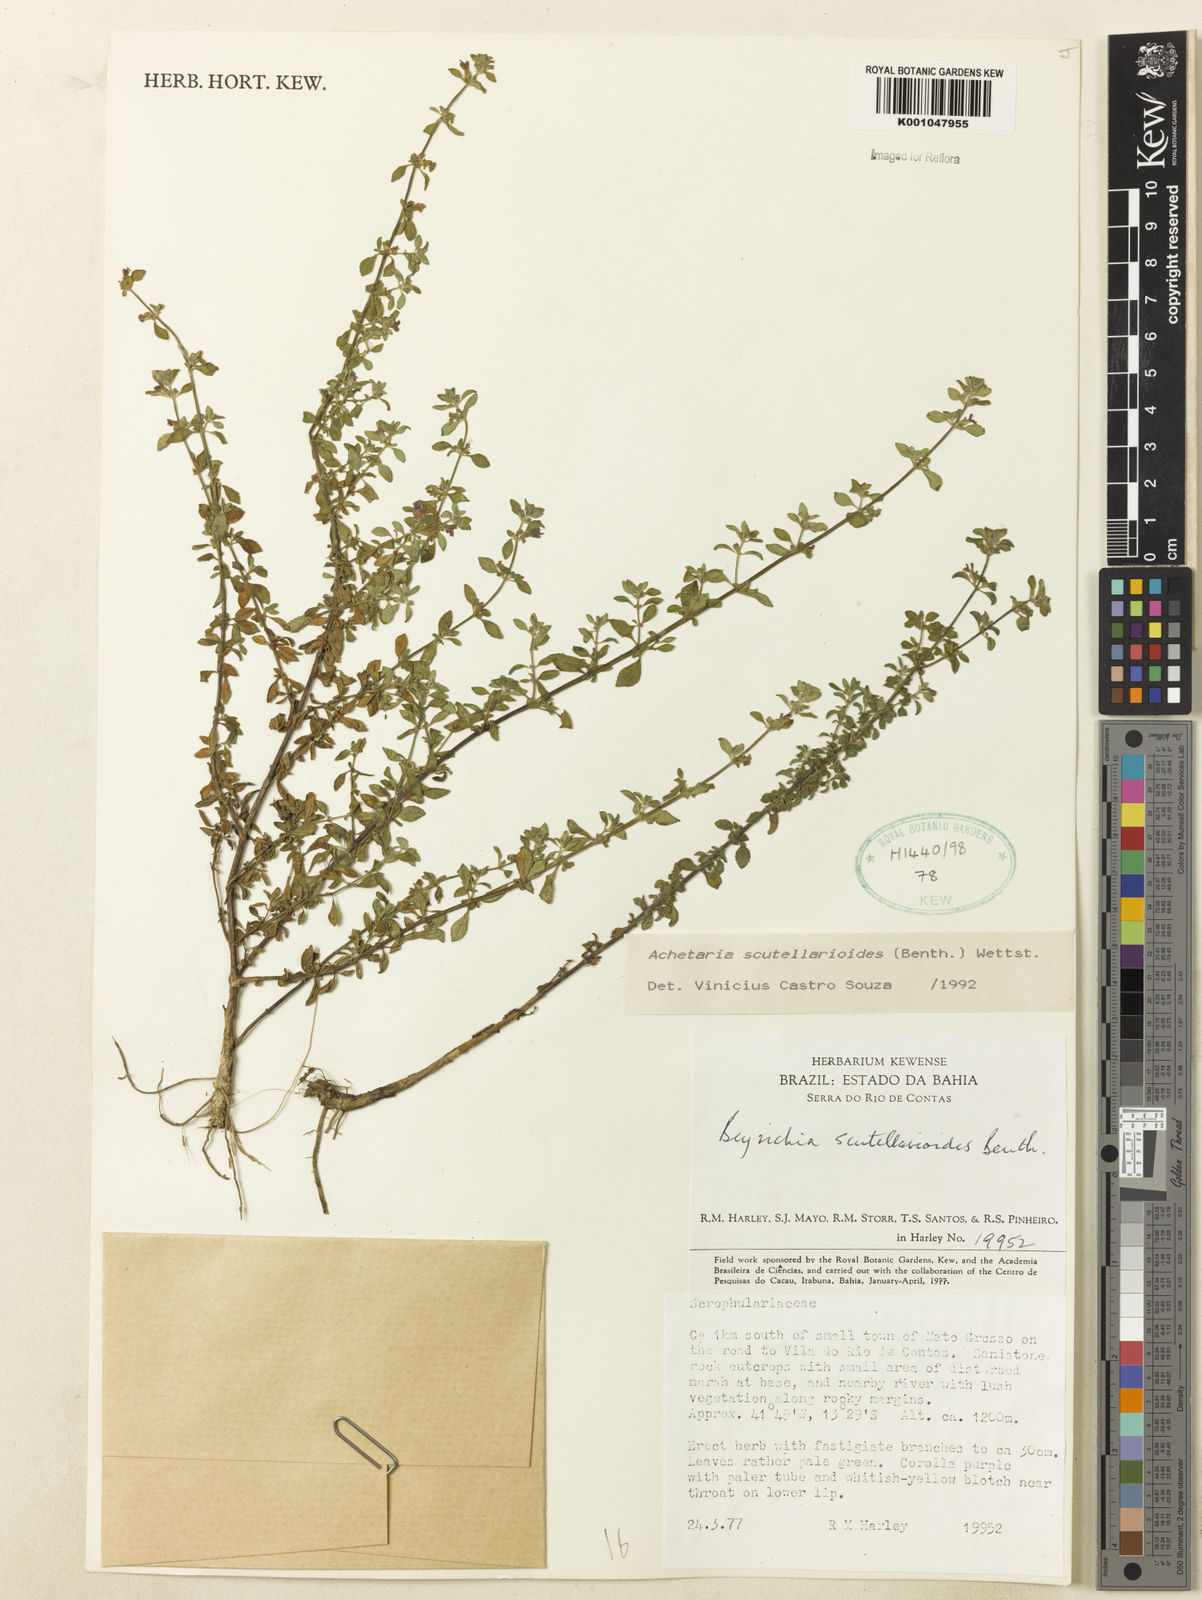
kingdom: Plantae
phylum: Tracheophyta
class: Magnoliopsida
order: Lamiales
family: Plantaginaceae
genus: Matourea
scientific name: Matourea scutellarioides
